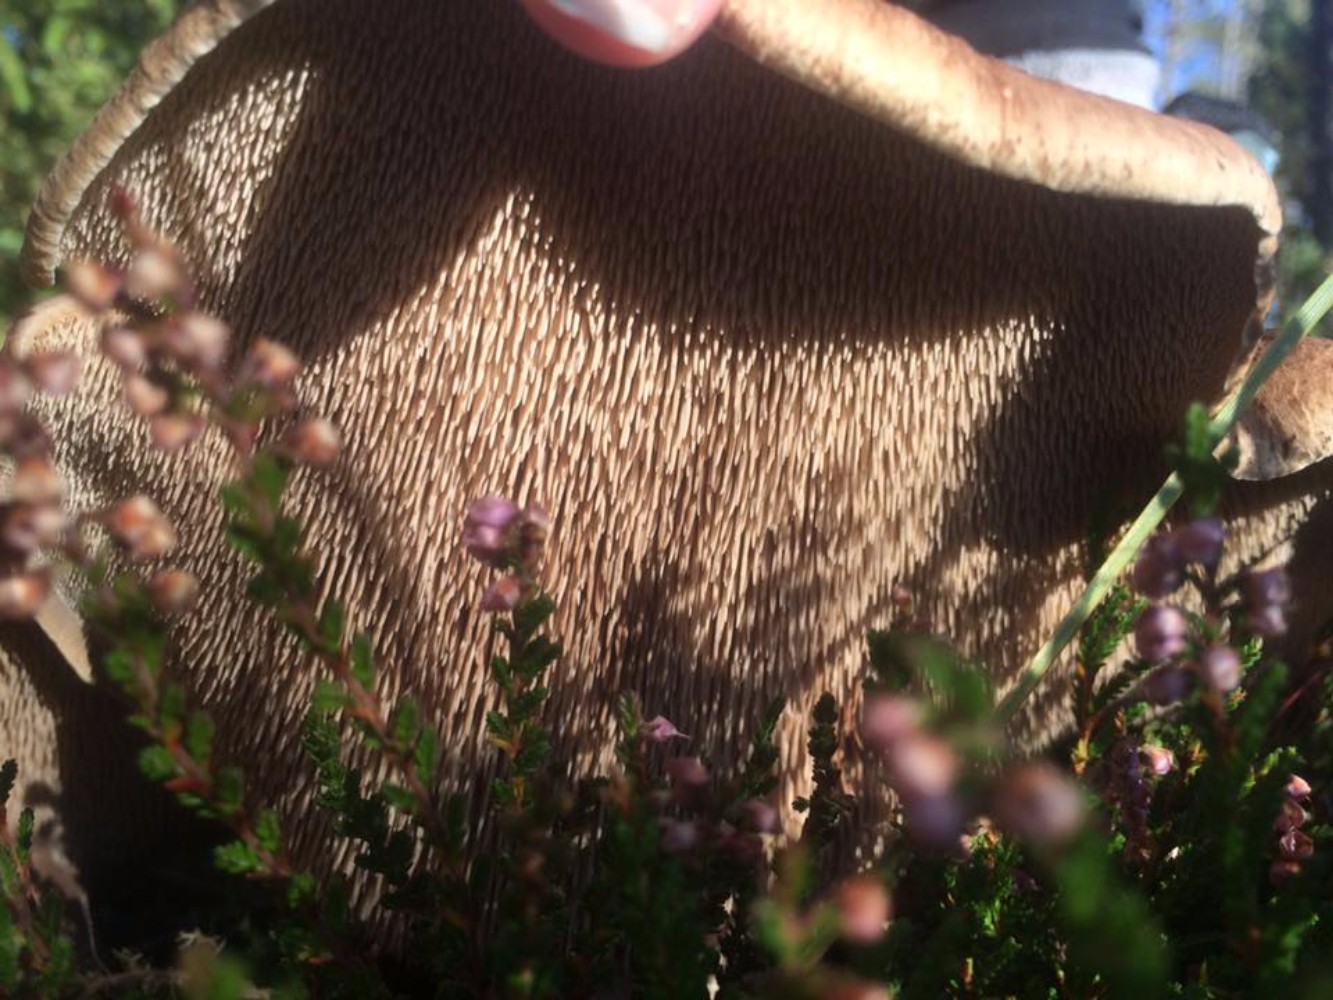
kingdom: Fungi
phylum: Basidiomycota
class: Agaricomycetes
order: Thelephorales
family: Bankeraceae
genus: Sarcodon
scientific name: Sarcodon squamosus
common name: småskællet kødpigsvamp
